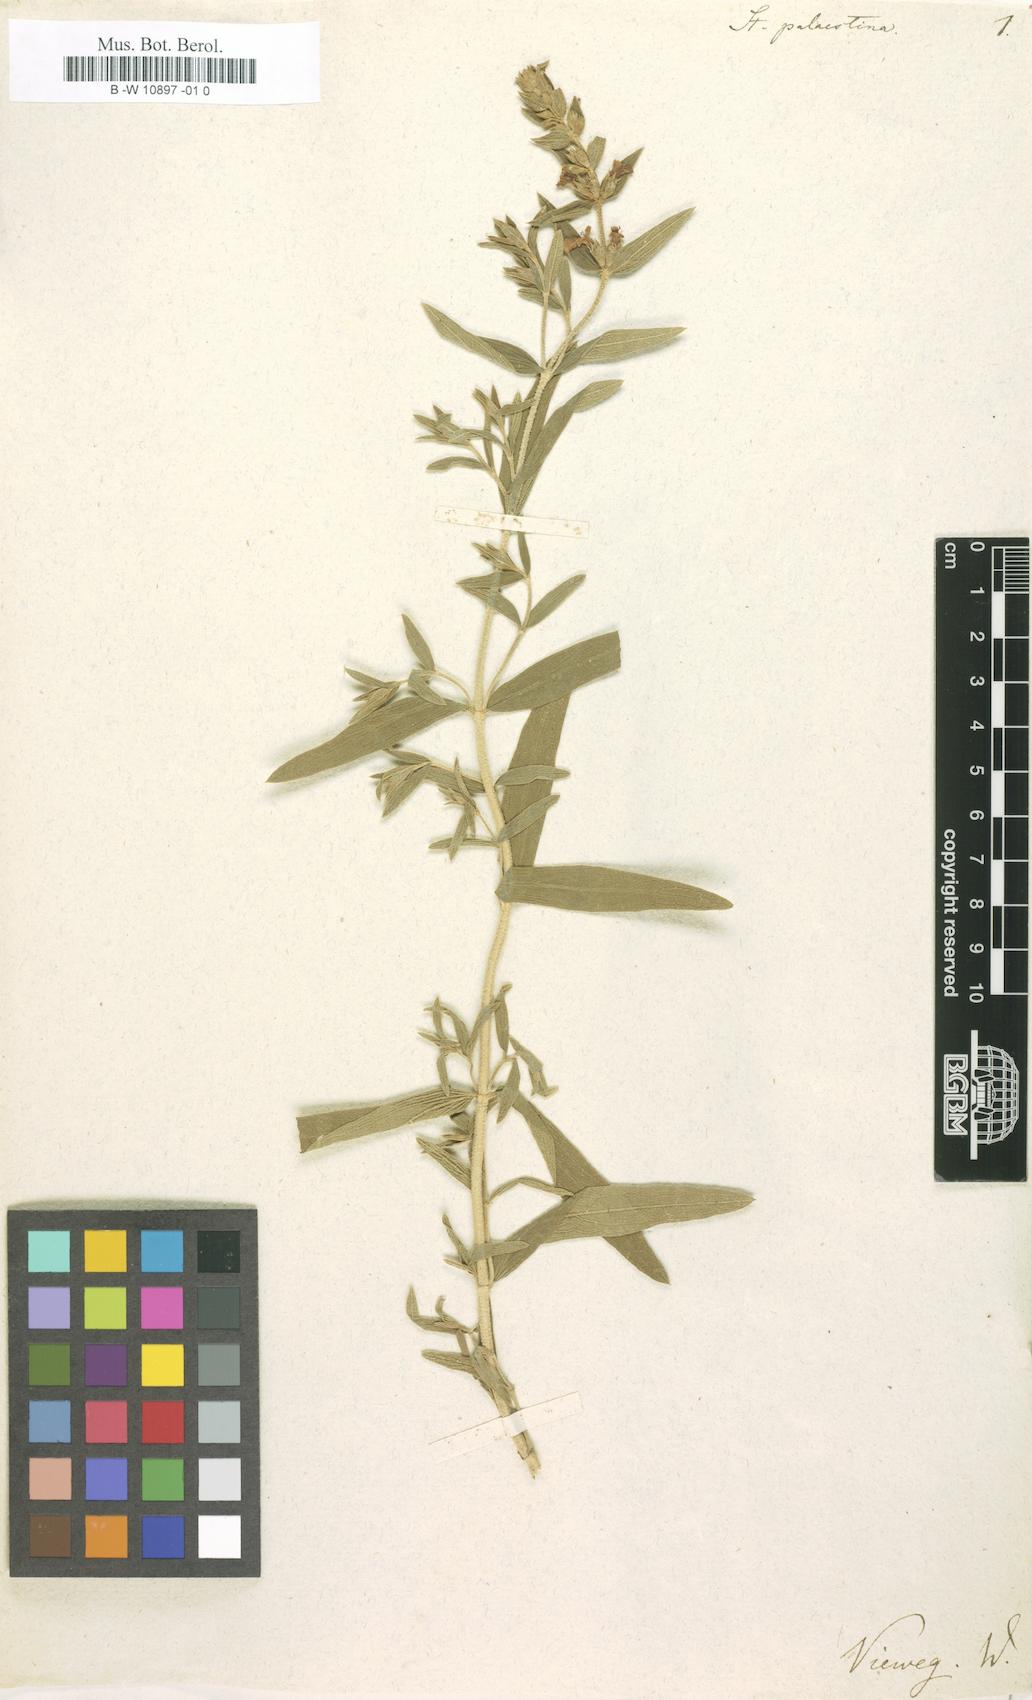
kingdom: Plantae
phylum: Tracheophyta
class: Magnoliopsida
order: Lamiales
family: Lamiaceae
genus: Stachys
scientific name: Stachys palaestina
